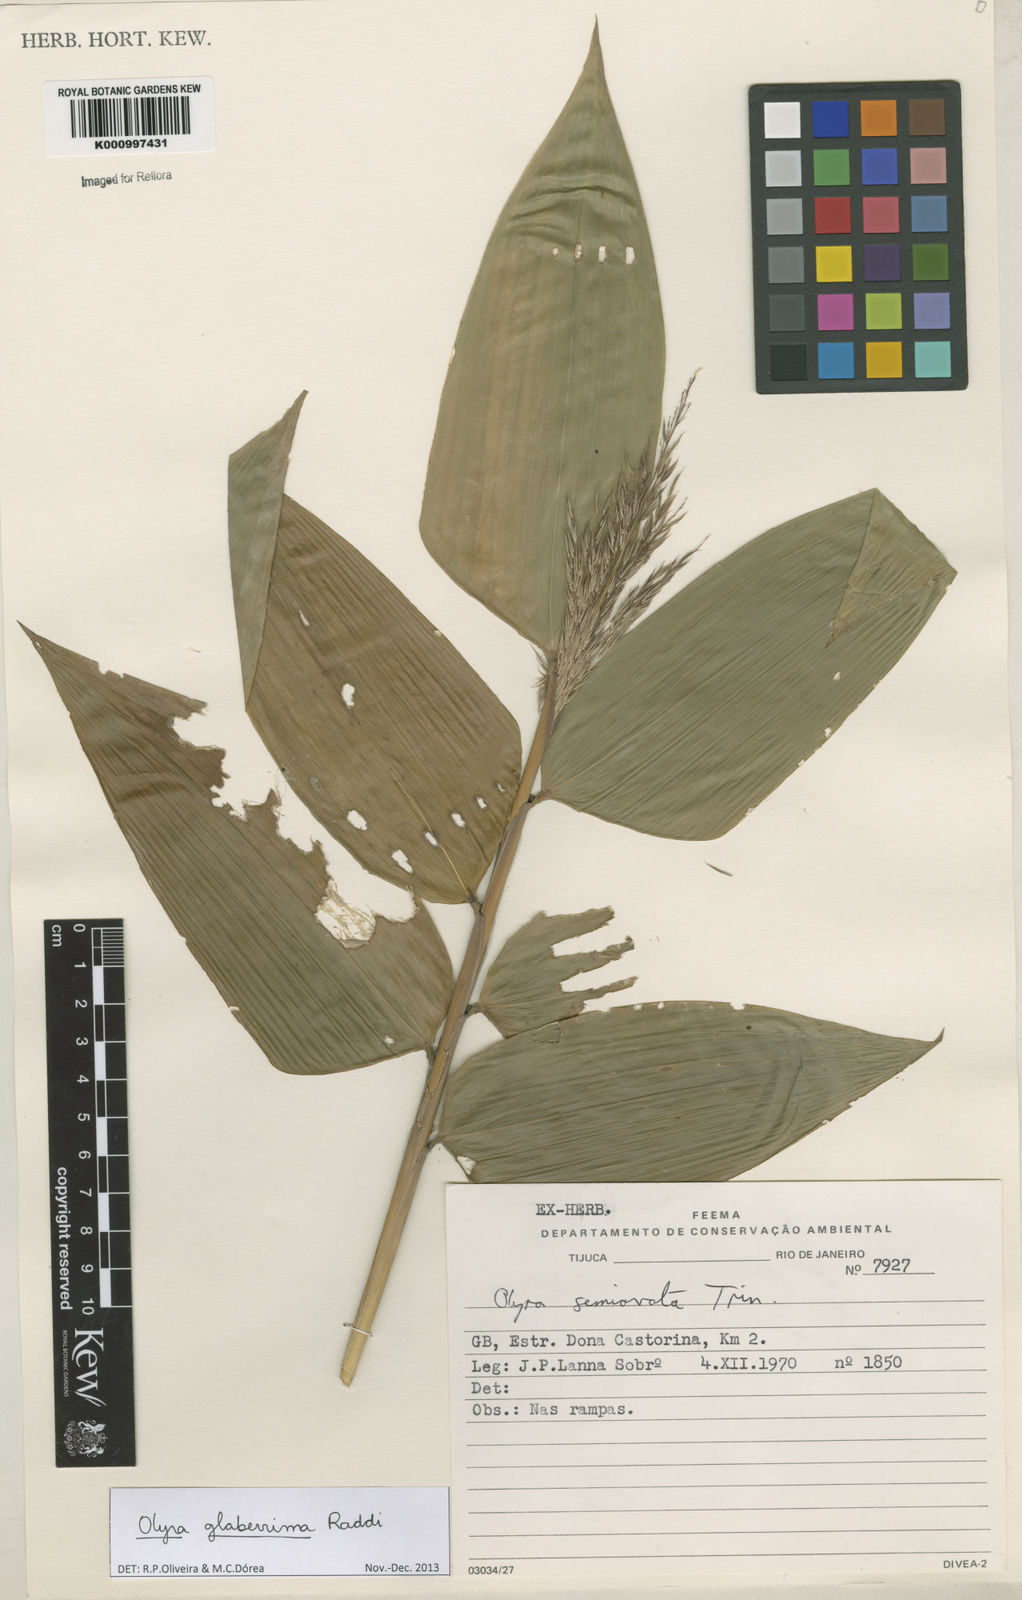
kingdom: Plantae
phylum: Tracheophyta
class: Liliopsida
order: Poales
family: Poaceae
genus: Olyra
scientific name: Olyra glaberrima
